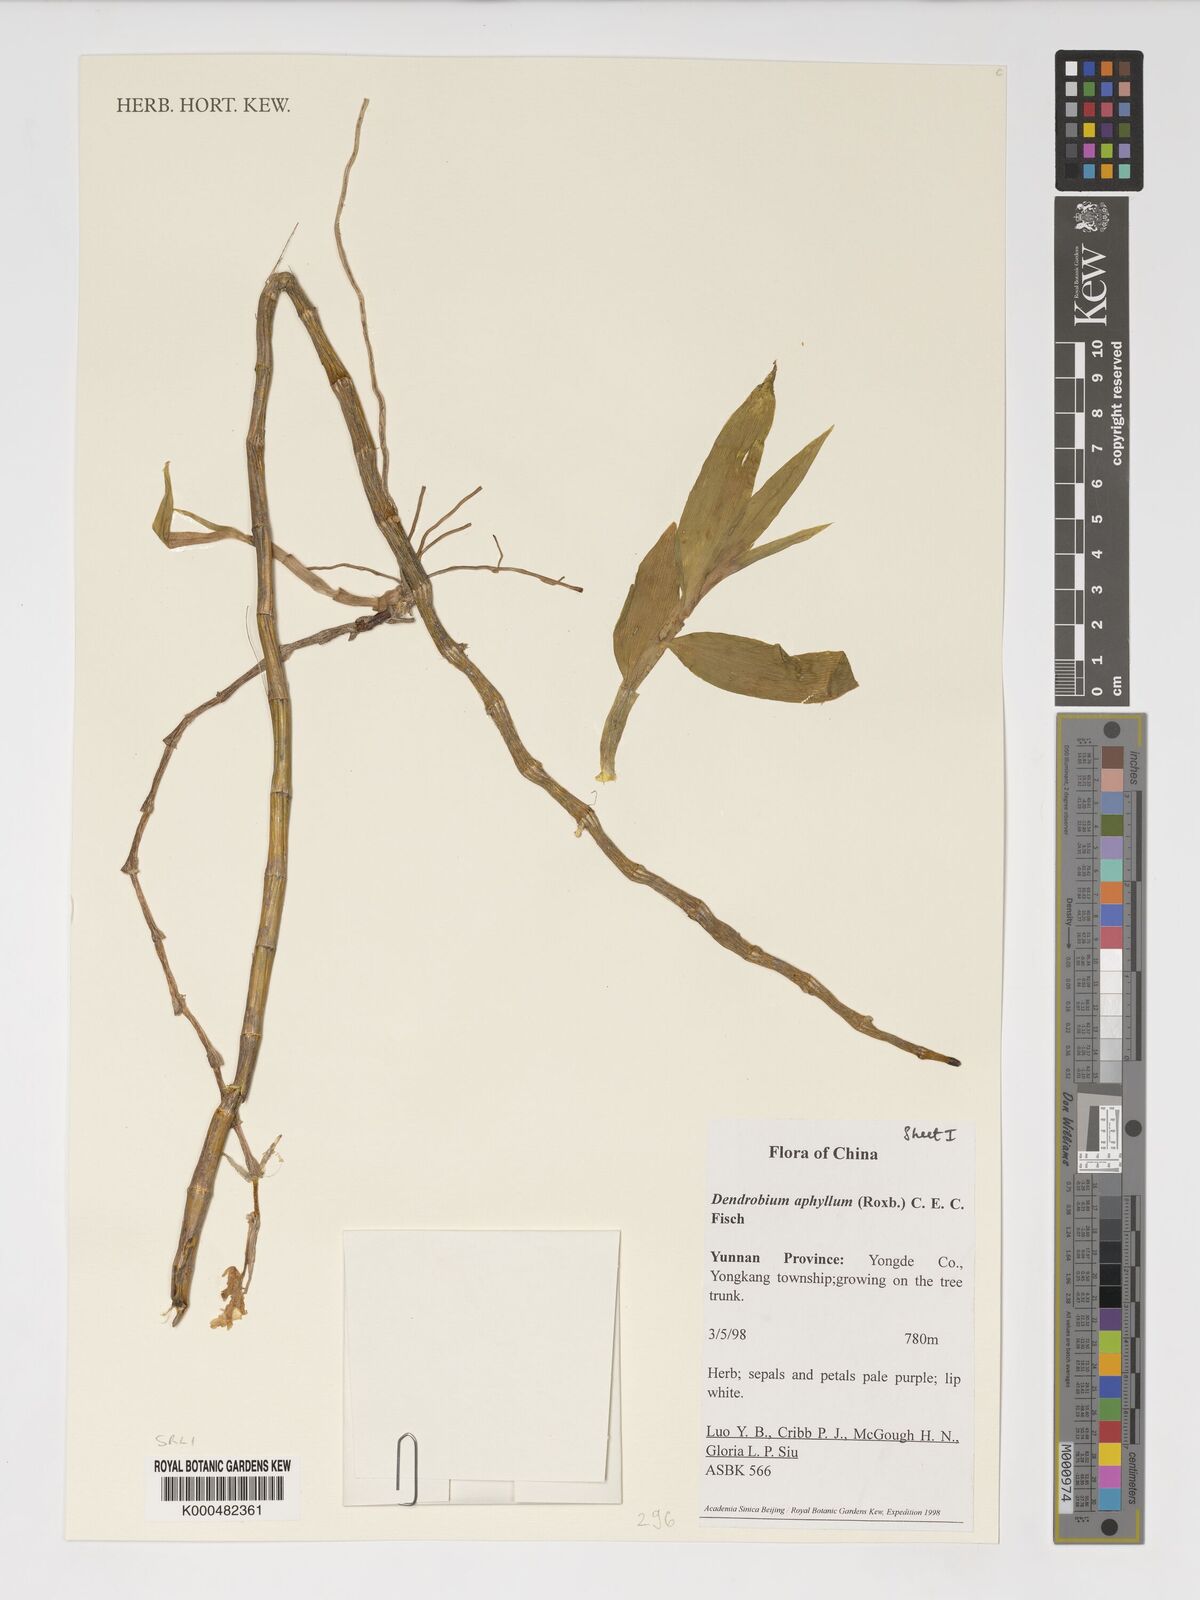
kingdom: Plantae
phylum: Tracheophyta
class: Liliopsida
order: Asparagales
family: Orchidaceae
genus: Dendrobium
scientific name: Dendrobium macrostachyum
